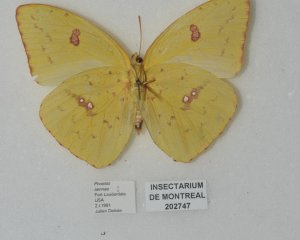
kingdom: Animalia
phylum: Arthropoda
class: Insecta
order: Lepidoptera
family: Pieridae
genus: Phoebis
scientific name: Phoebis sennae
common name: Cloudless Sulphur
